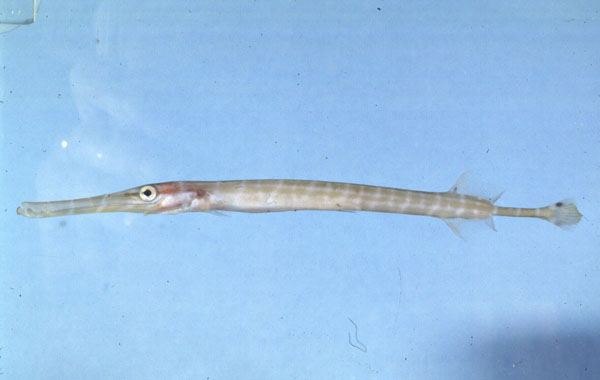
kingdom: Animalia
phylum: Chordata
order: Syngnathiformes
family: Aulostomidae
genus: Aulostomus
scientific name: Aulostomus chinensis
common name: Chinese trumpetfish
